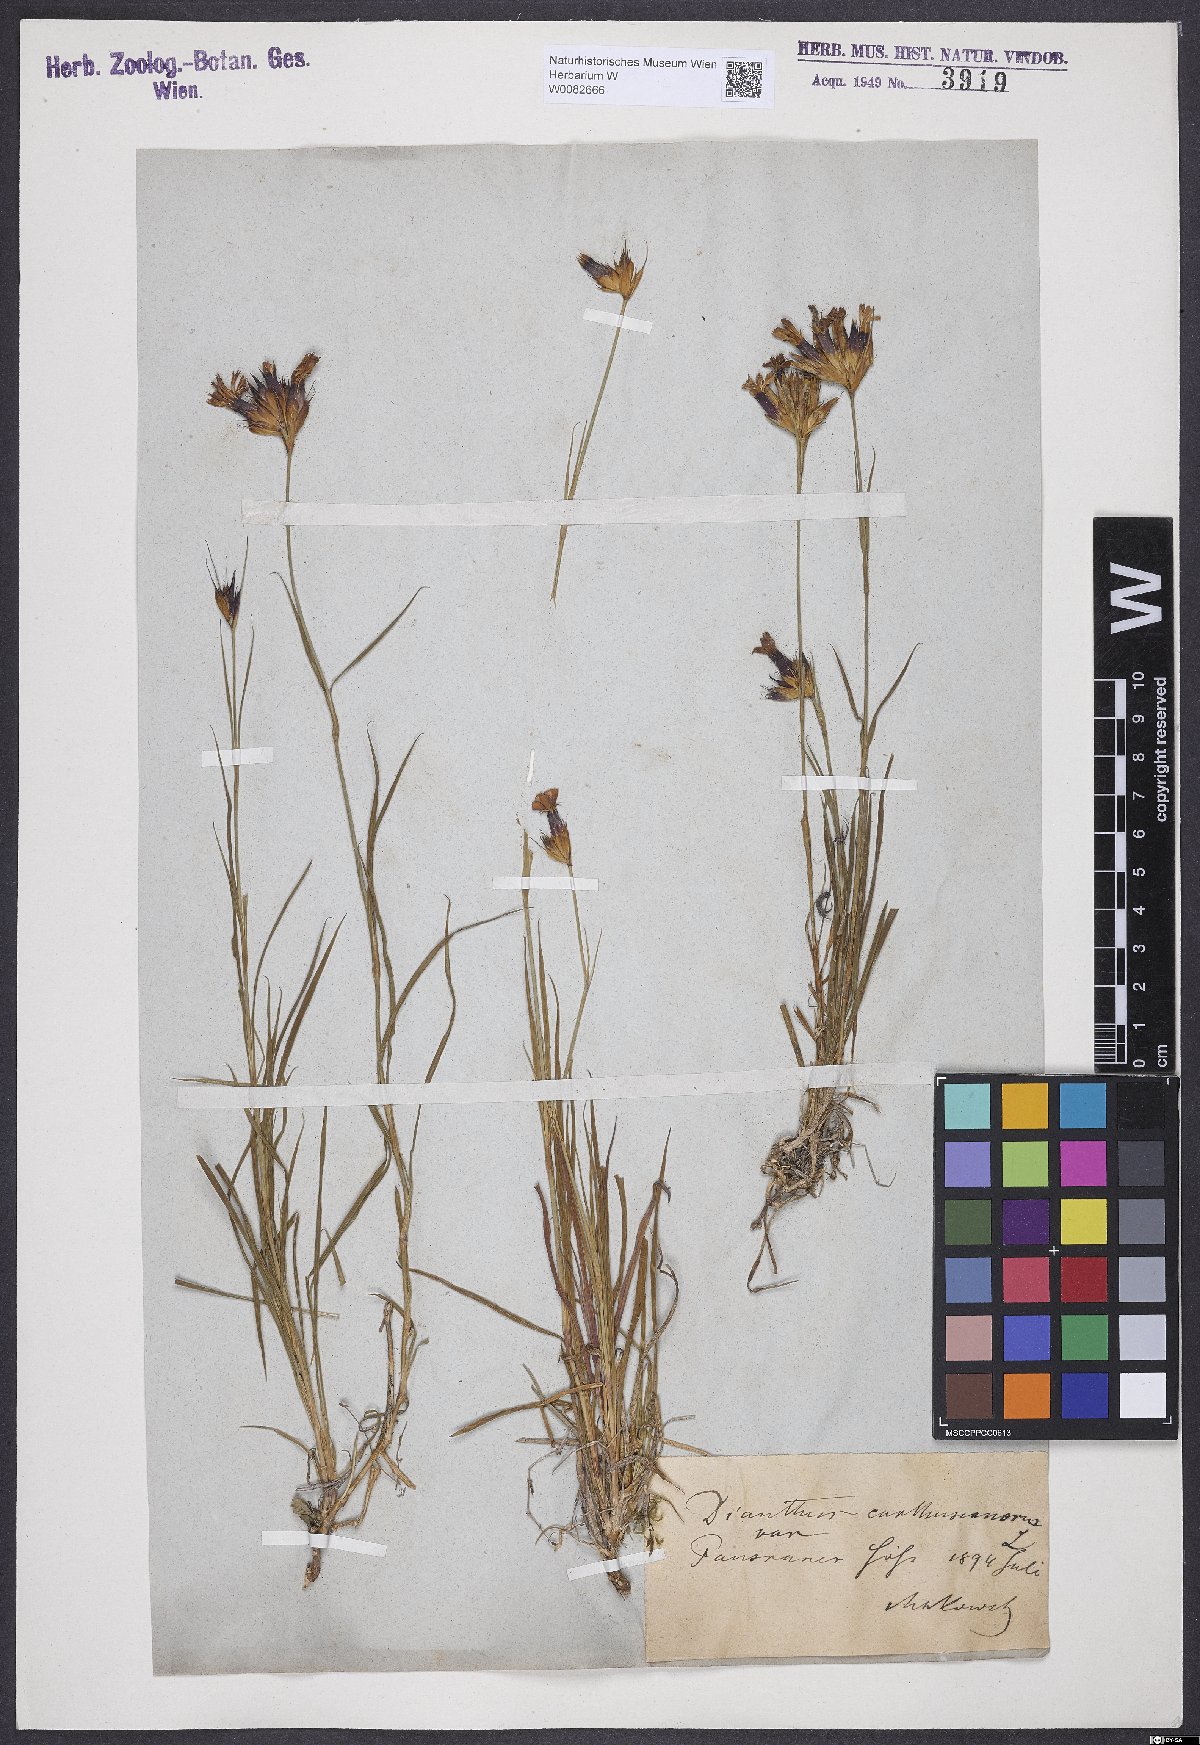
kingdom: Plantae
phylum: Tracheophyta
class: Magnoliopsida
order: Caryophyllales
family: Caryophyllaceae
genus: Dianthus
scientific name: Dianthus carthusianorum
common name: Carthusian pink
